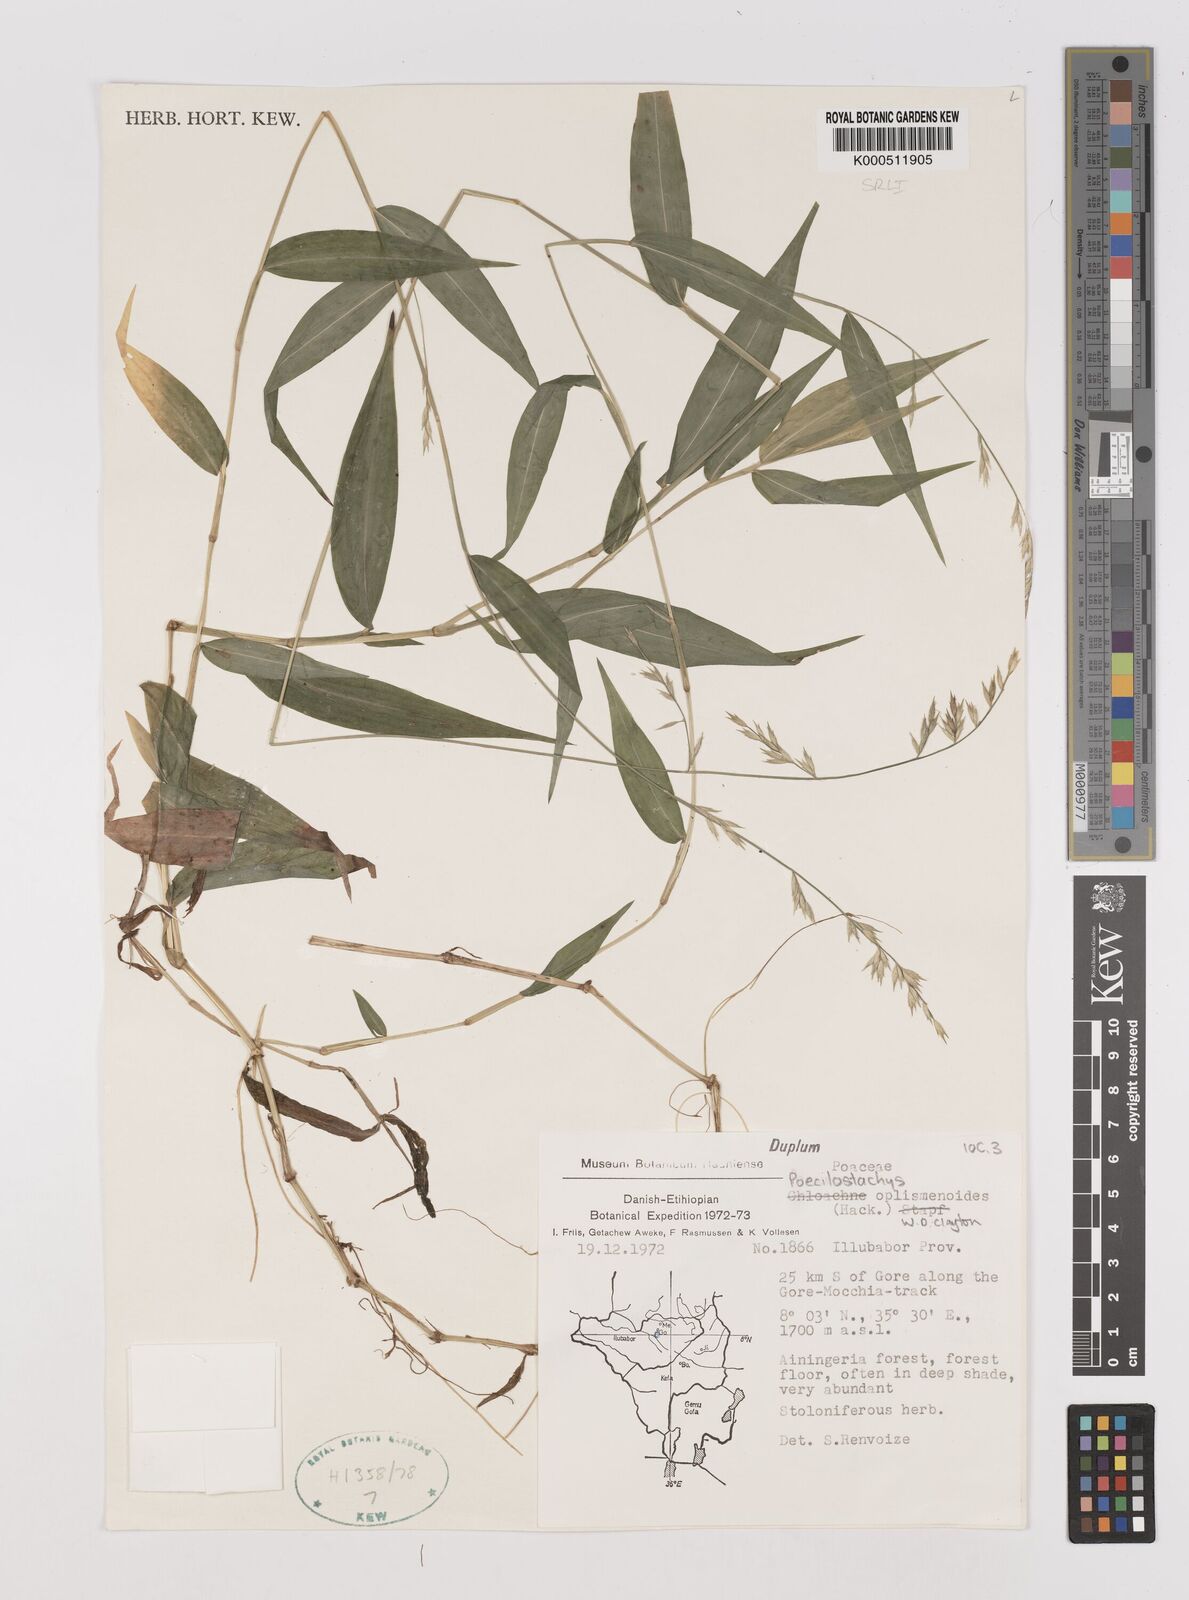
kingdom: Plantae
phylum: Tracheophyta
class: Liliopsida
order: Poales
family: Poaceae
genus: Poecilostachys
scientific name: Poecilostachys oplismenoides
